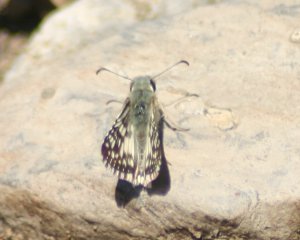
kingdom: Animalia
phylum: Arthropoda
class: Insecta
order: Lepidoptera
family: Hesperiidae
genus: Pyrgus
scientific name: Pyrgus communis
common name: Common Checkered-Skipper
